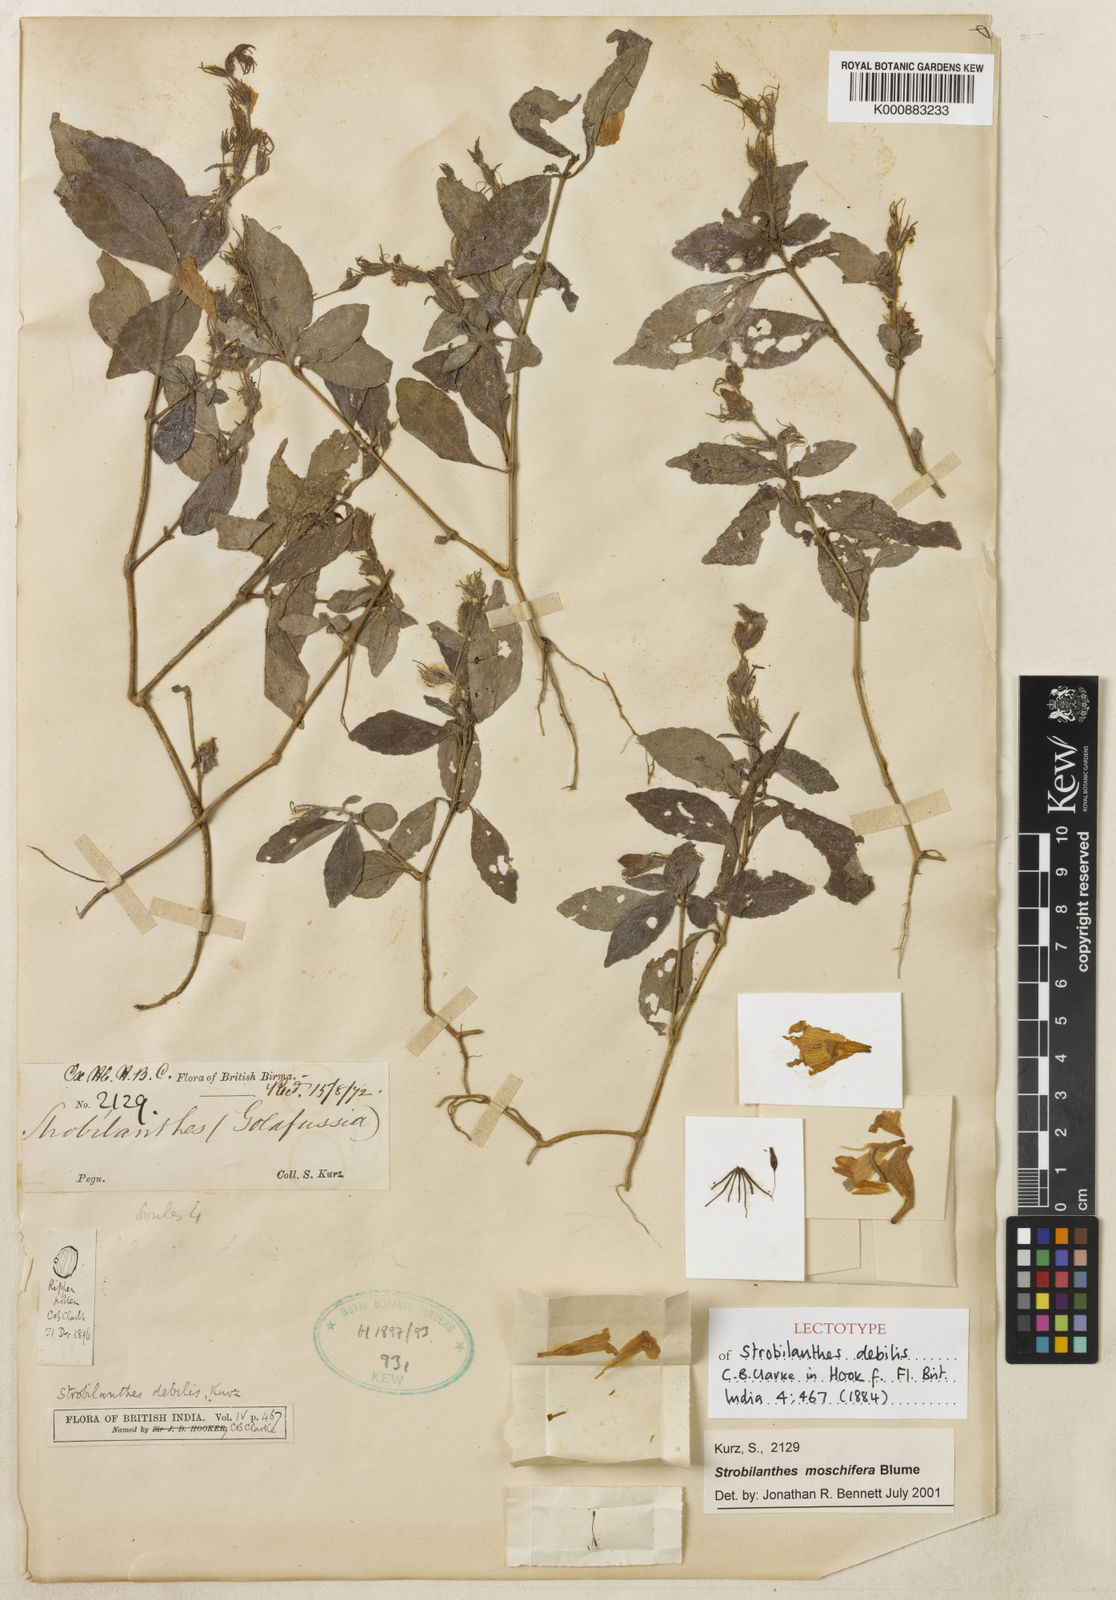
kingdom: Plantae
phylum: Tracheophyta
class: Magnoliopsida
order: Lamiales
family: Acanthaceae
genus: Strobilanthes
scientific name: Strobilanthes moschifera
